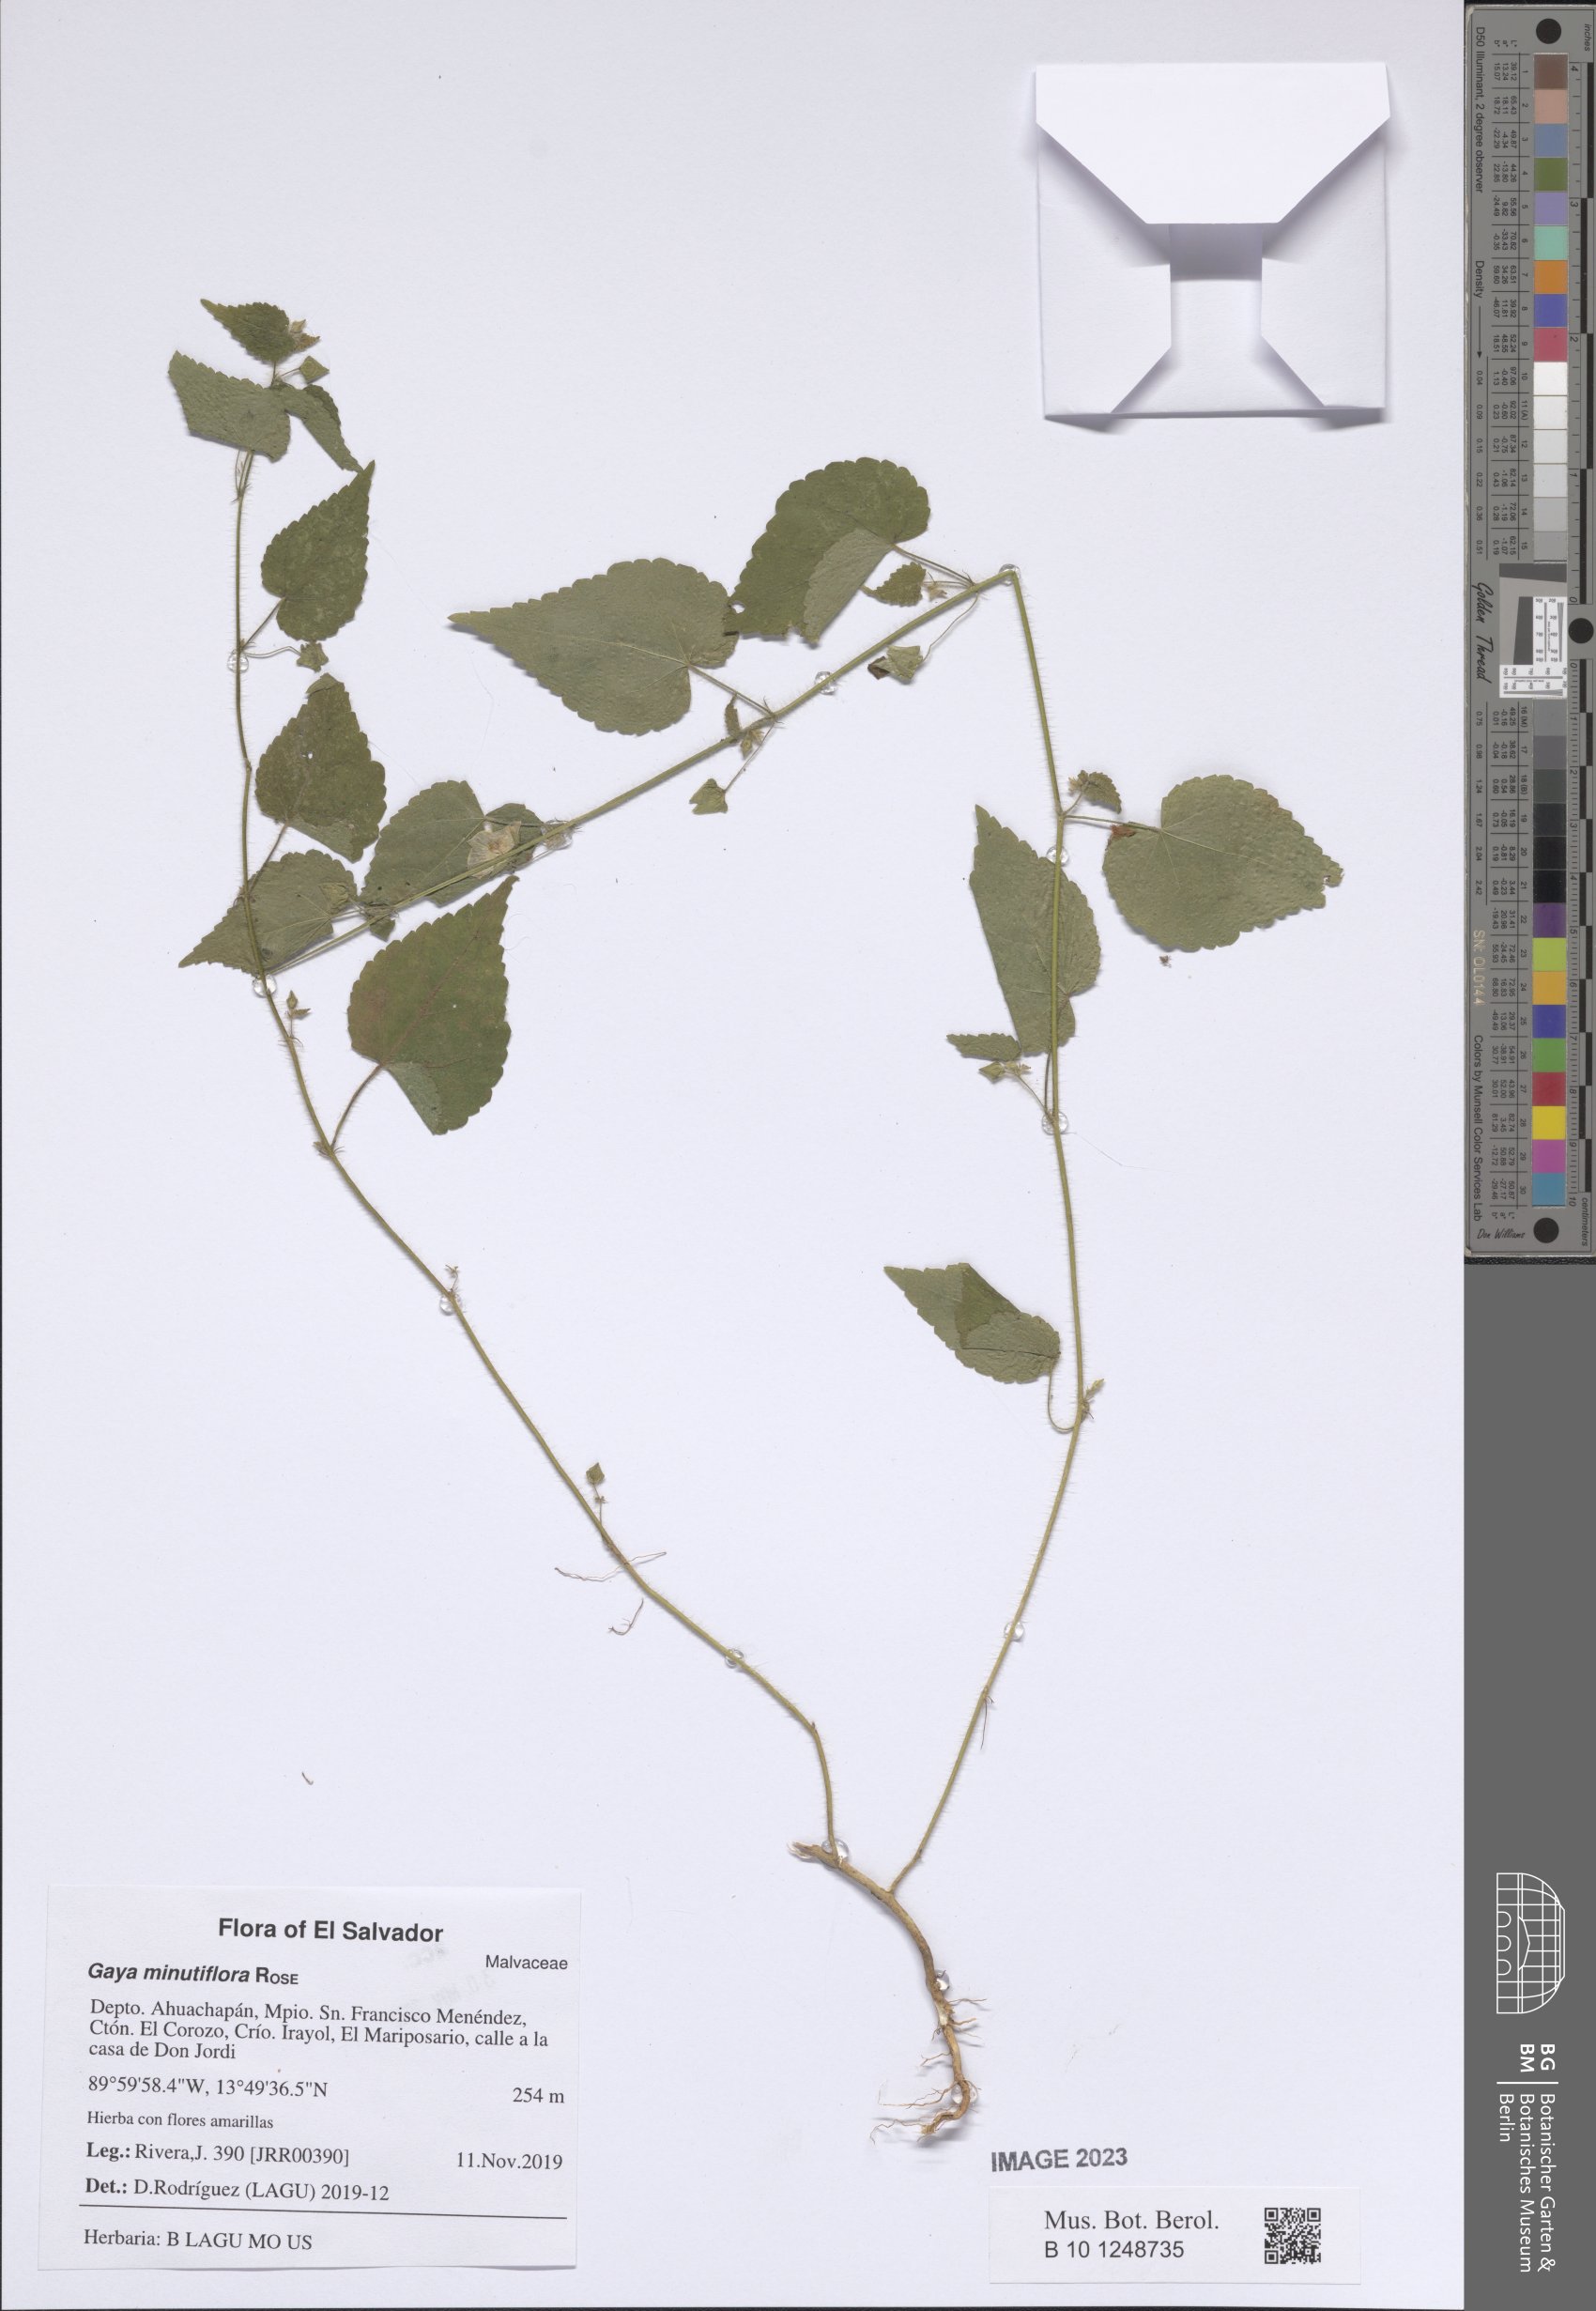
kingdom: Plantae
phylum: Tracheophyta
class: Magnoliopsida
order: Malvales
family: Malvaceae
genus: Gaya
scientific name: Gaya minutiflora
